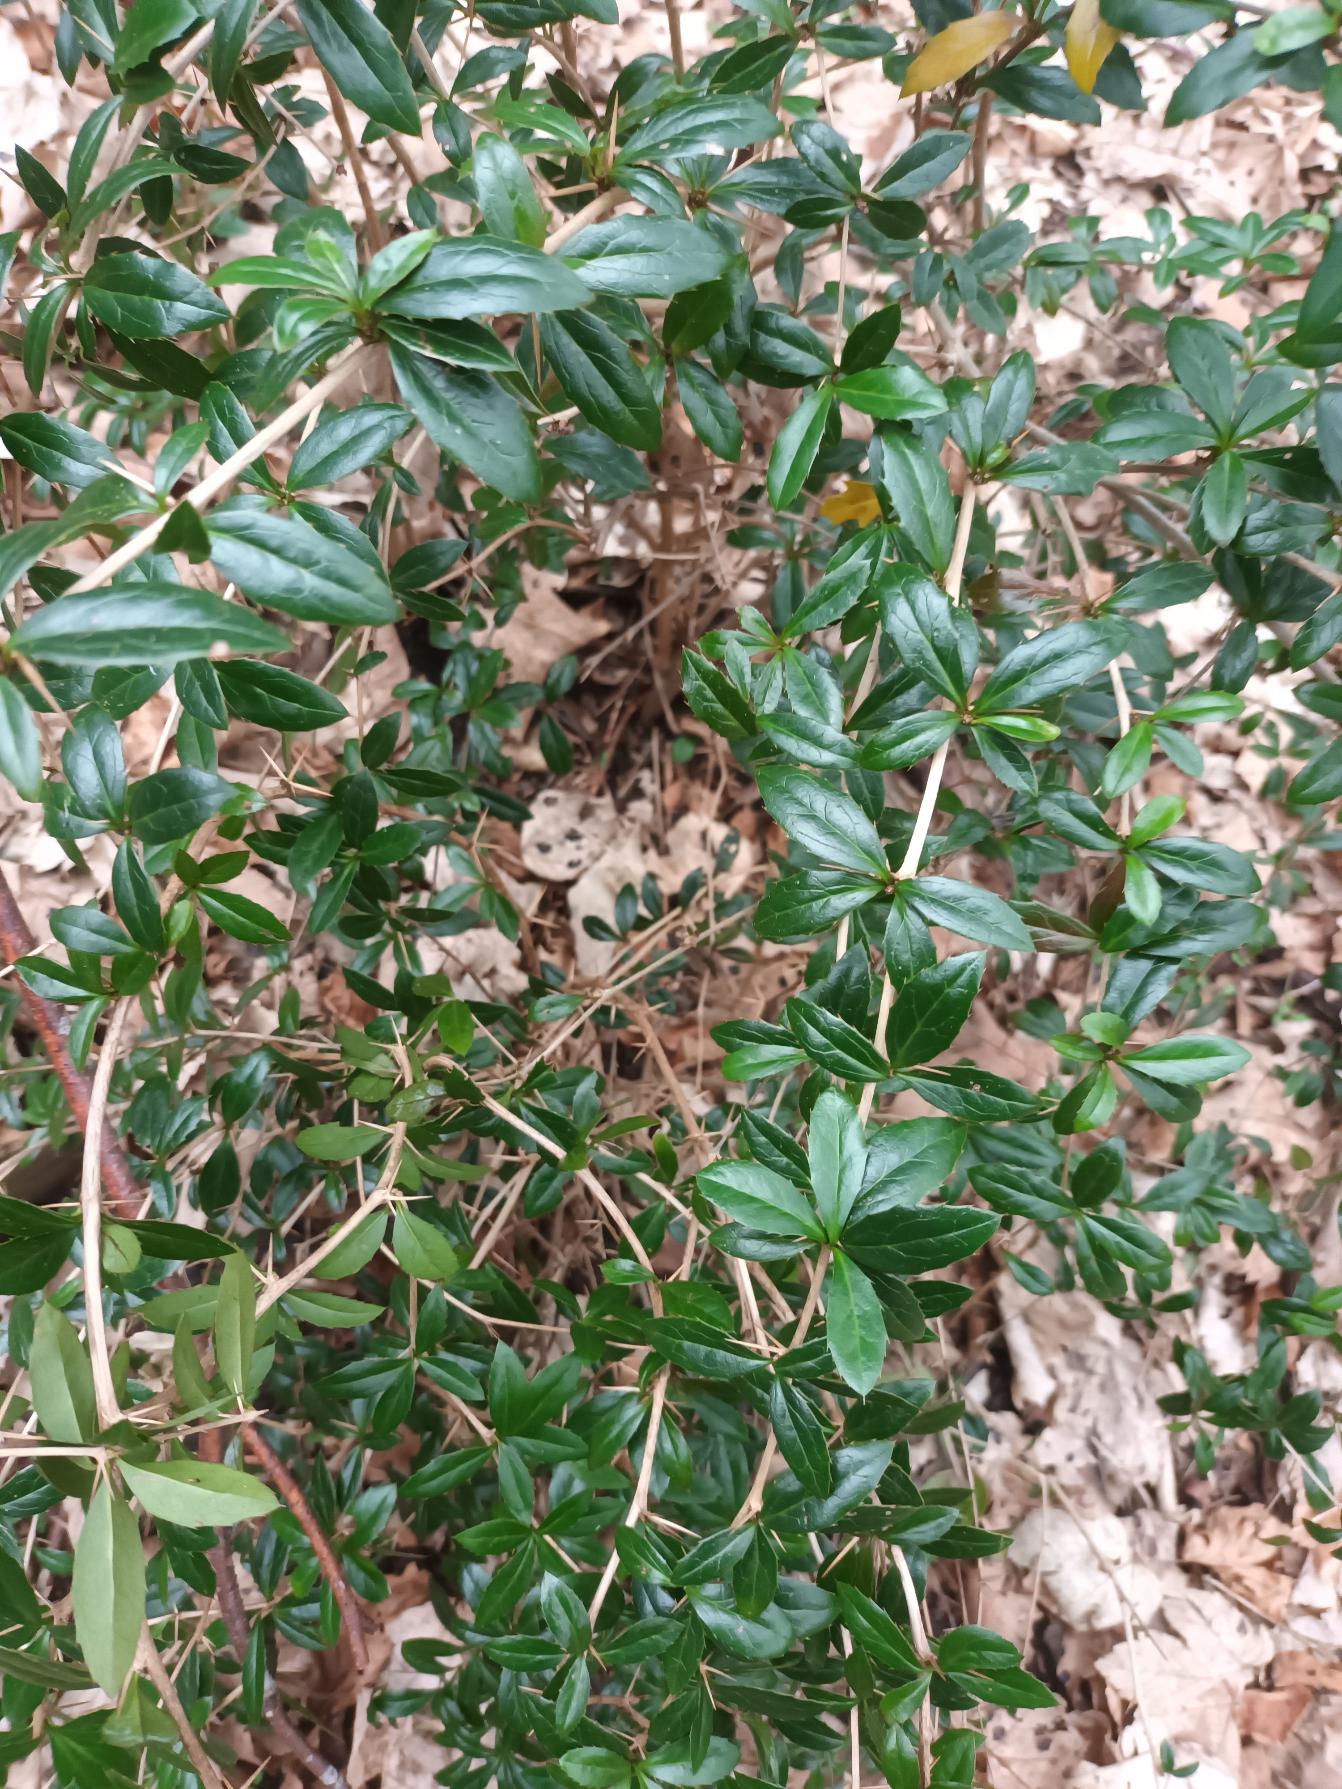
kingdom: Plantae
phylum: Tracheophyta
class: Magnoliopsida
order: Ranunculales
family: Berberidaceae
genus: Berberis
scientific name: Berberis hybridogagnepainii
